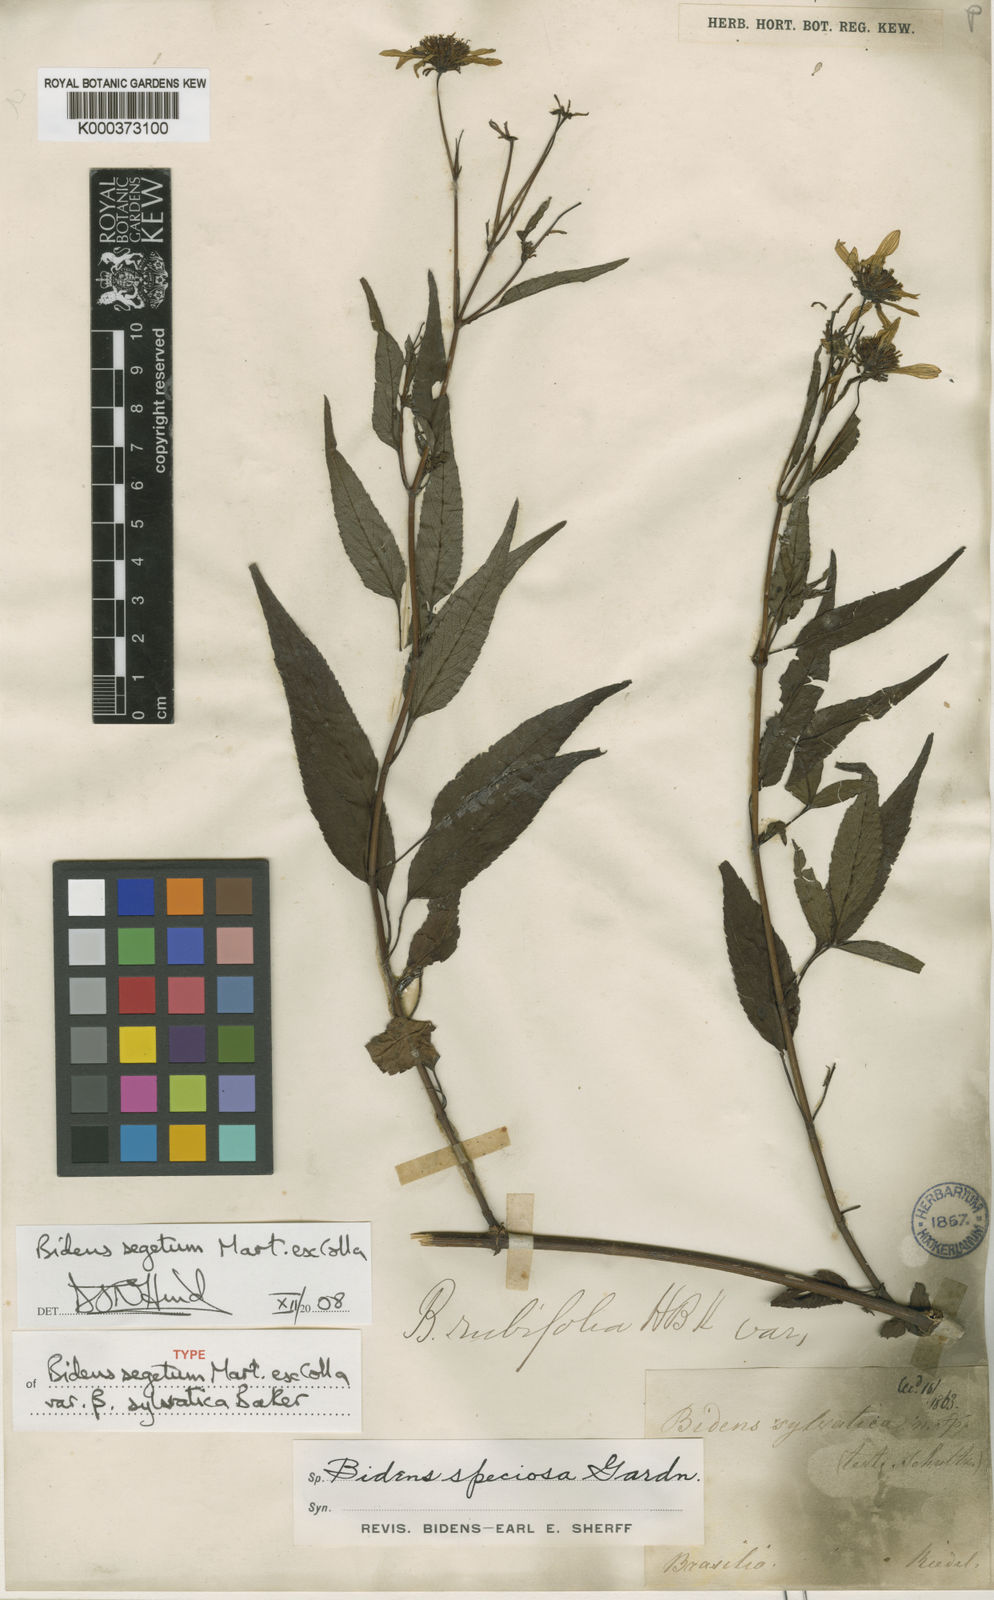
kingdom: Plantae
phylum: Tracheophyta
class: Magnoliopsida
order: Asterales
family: Asteraceae
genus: Bidens
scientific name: Bidens segetum
